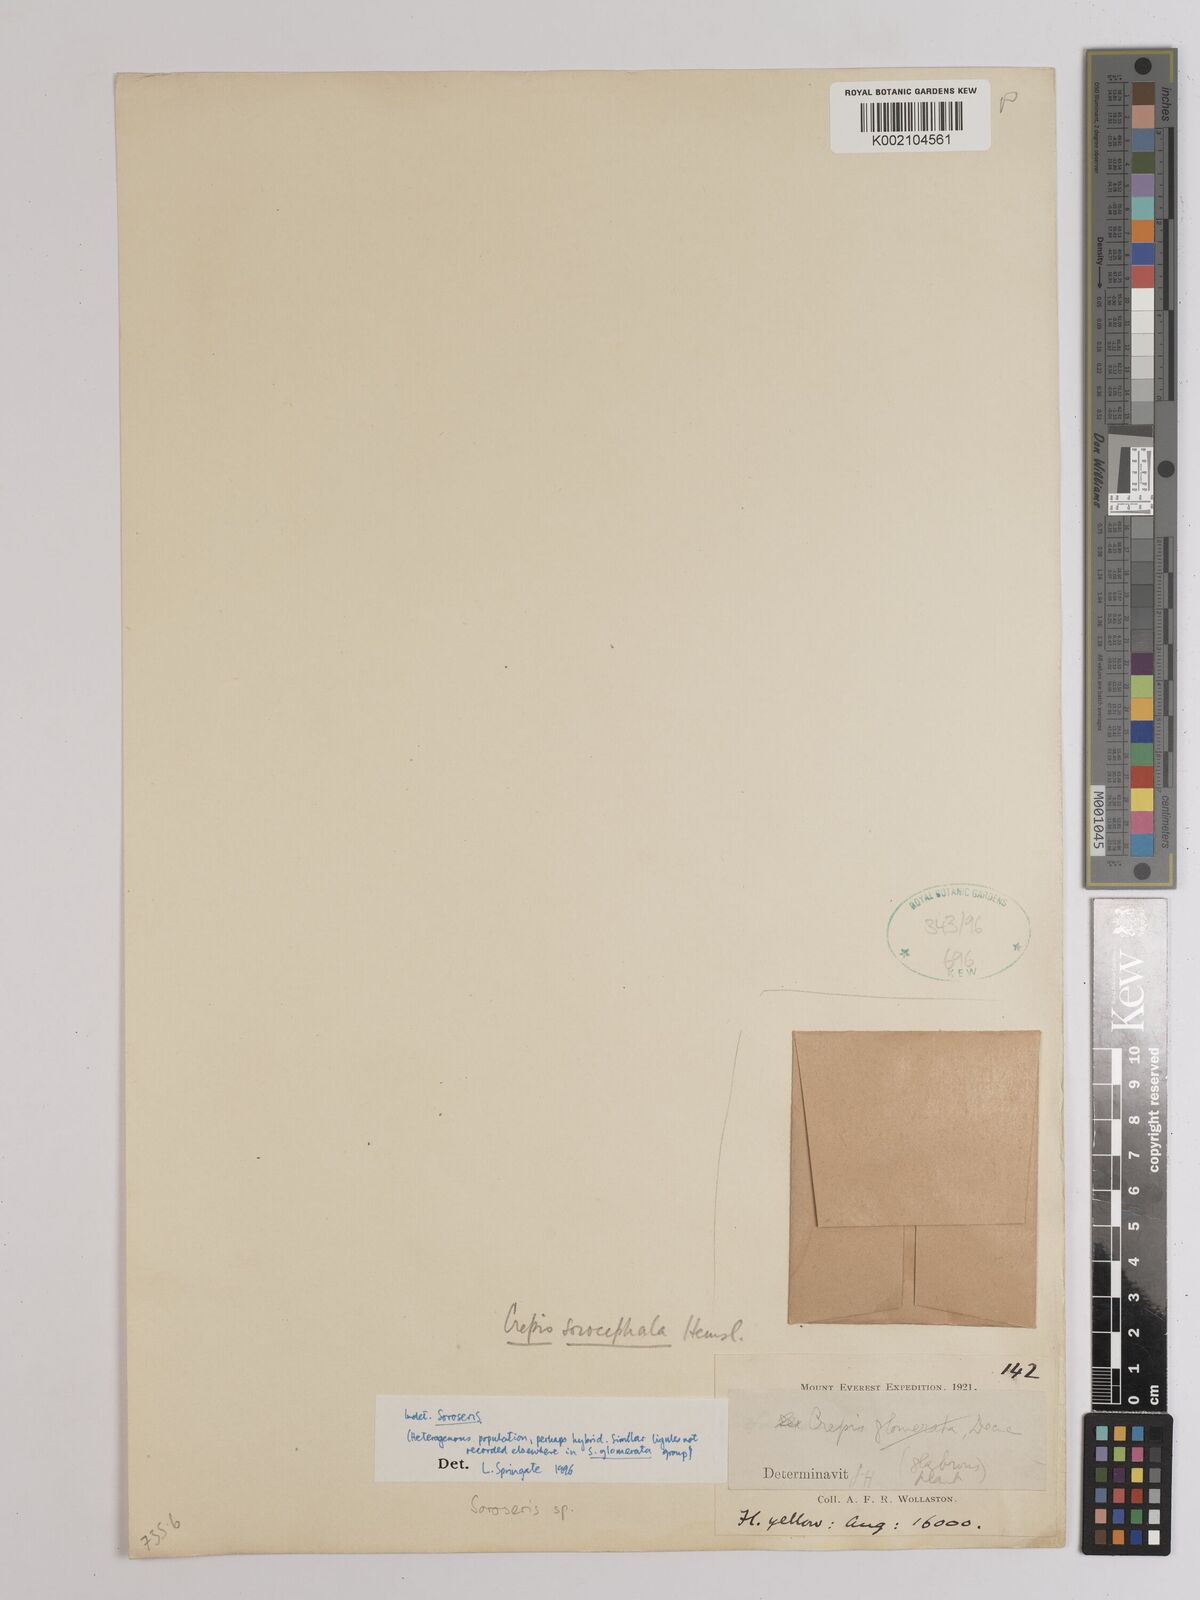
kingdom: Plantae
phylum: Tracheophyta
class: Magnoliopsida
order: Asterales
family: Asteraceae
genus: Soroseris
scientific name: Soroseris
